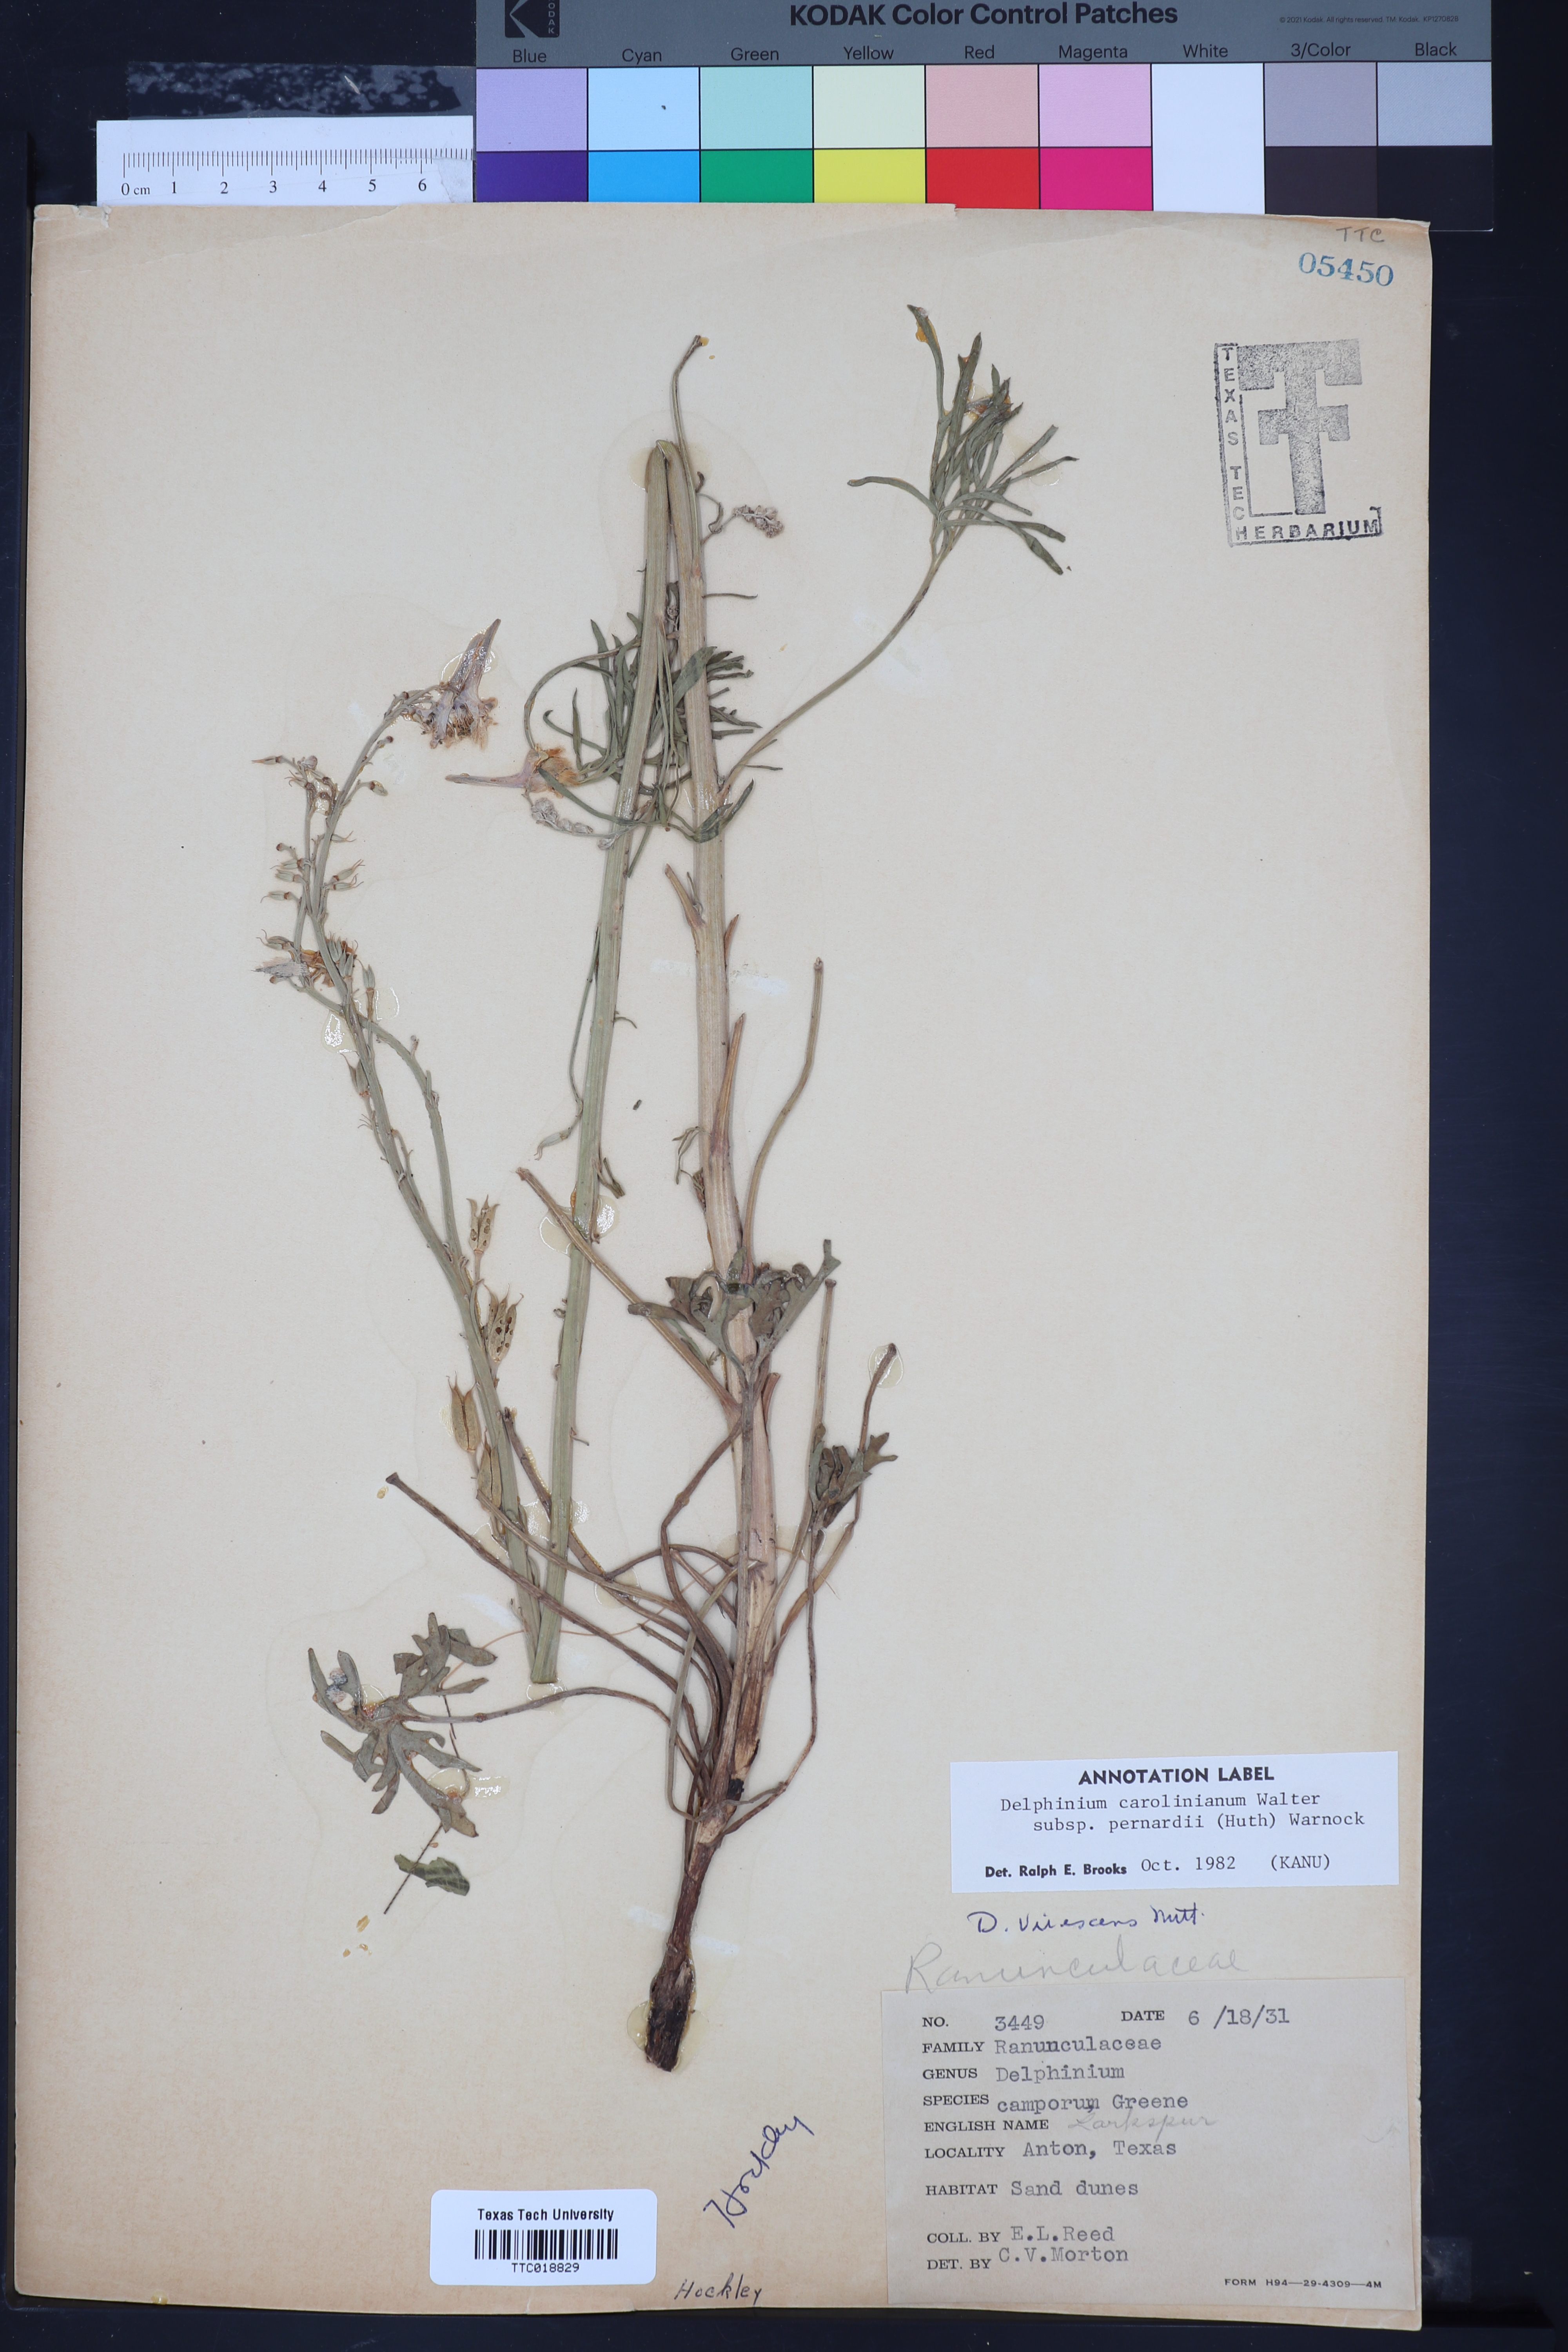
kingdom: Plantae
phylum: Tracheophyta
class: Magnoliopsida
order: Ranunculales
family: Ranunculaceae
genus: Delphinium
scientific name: Delphinium carolinianum
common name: Carolina larkspur
